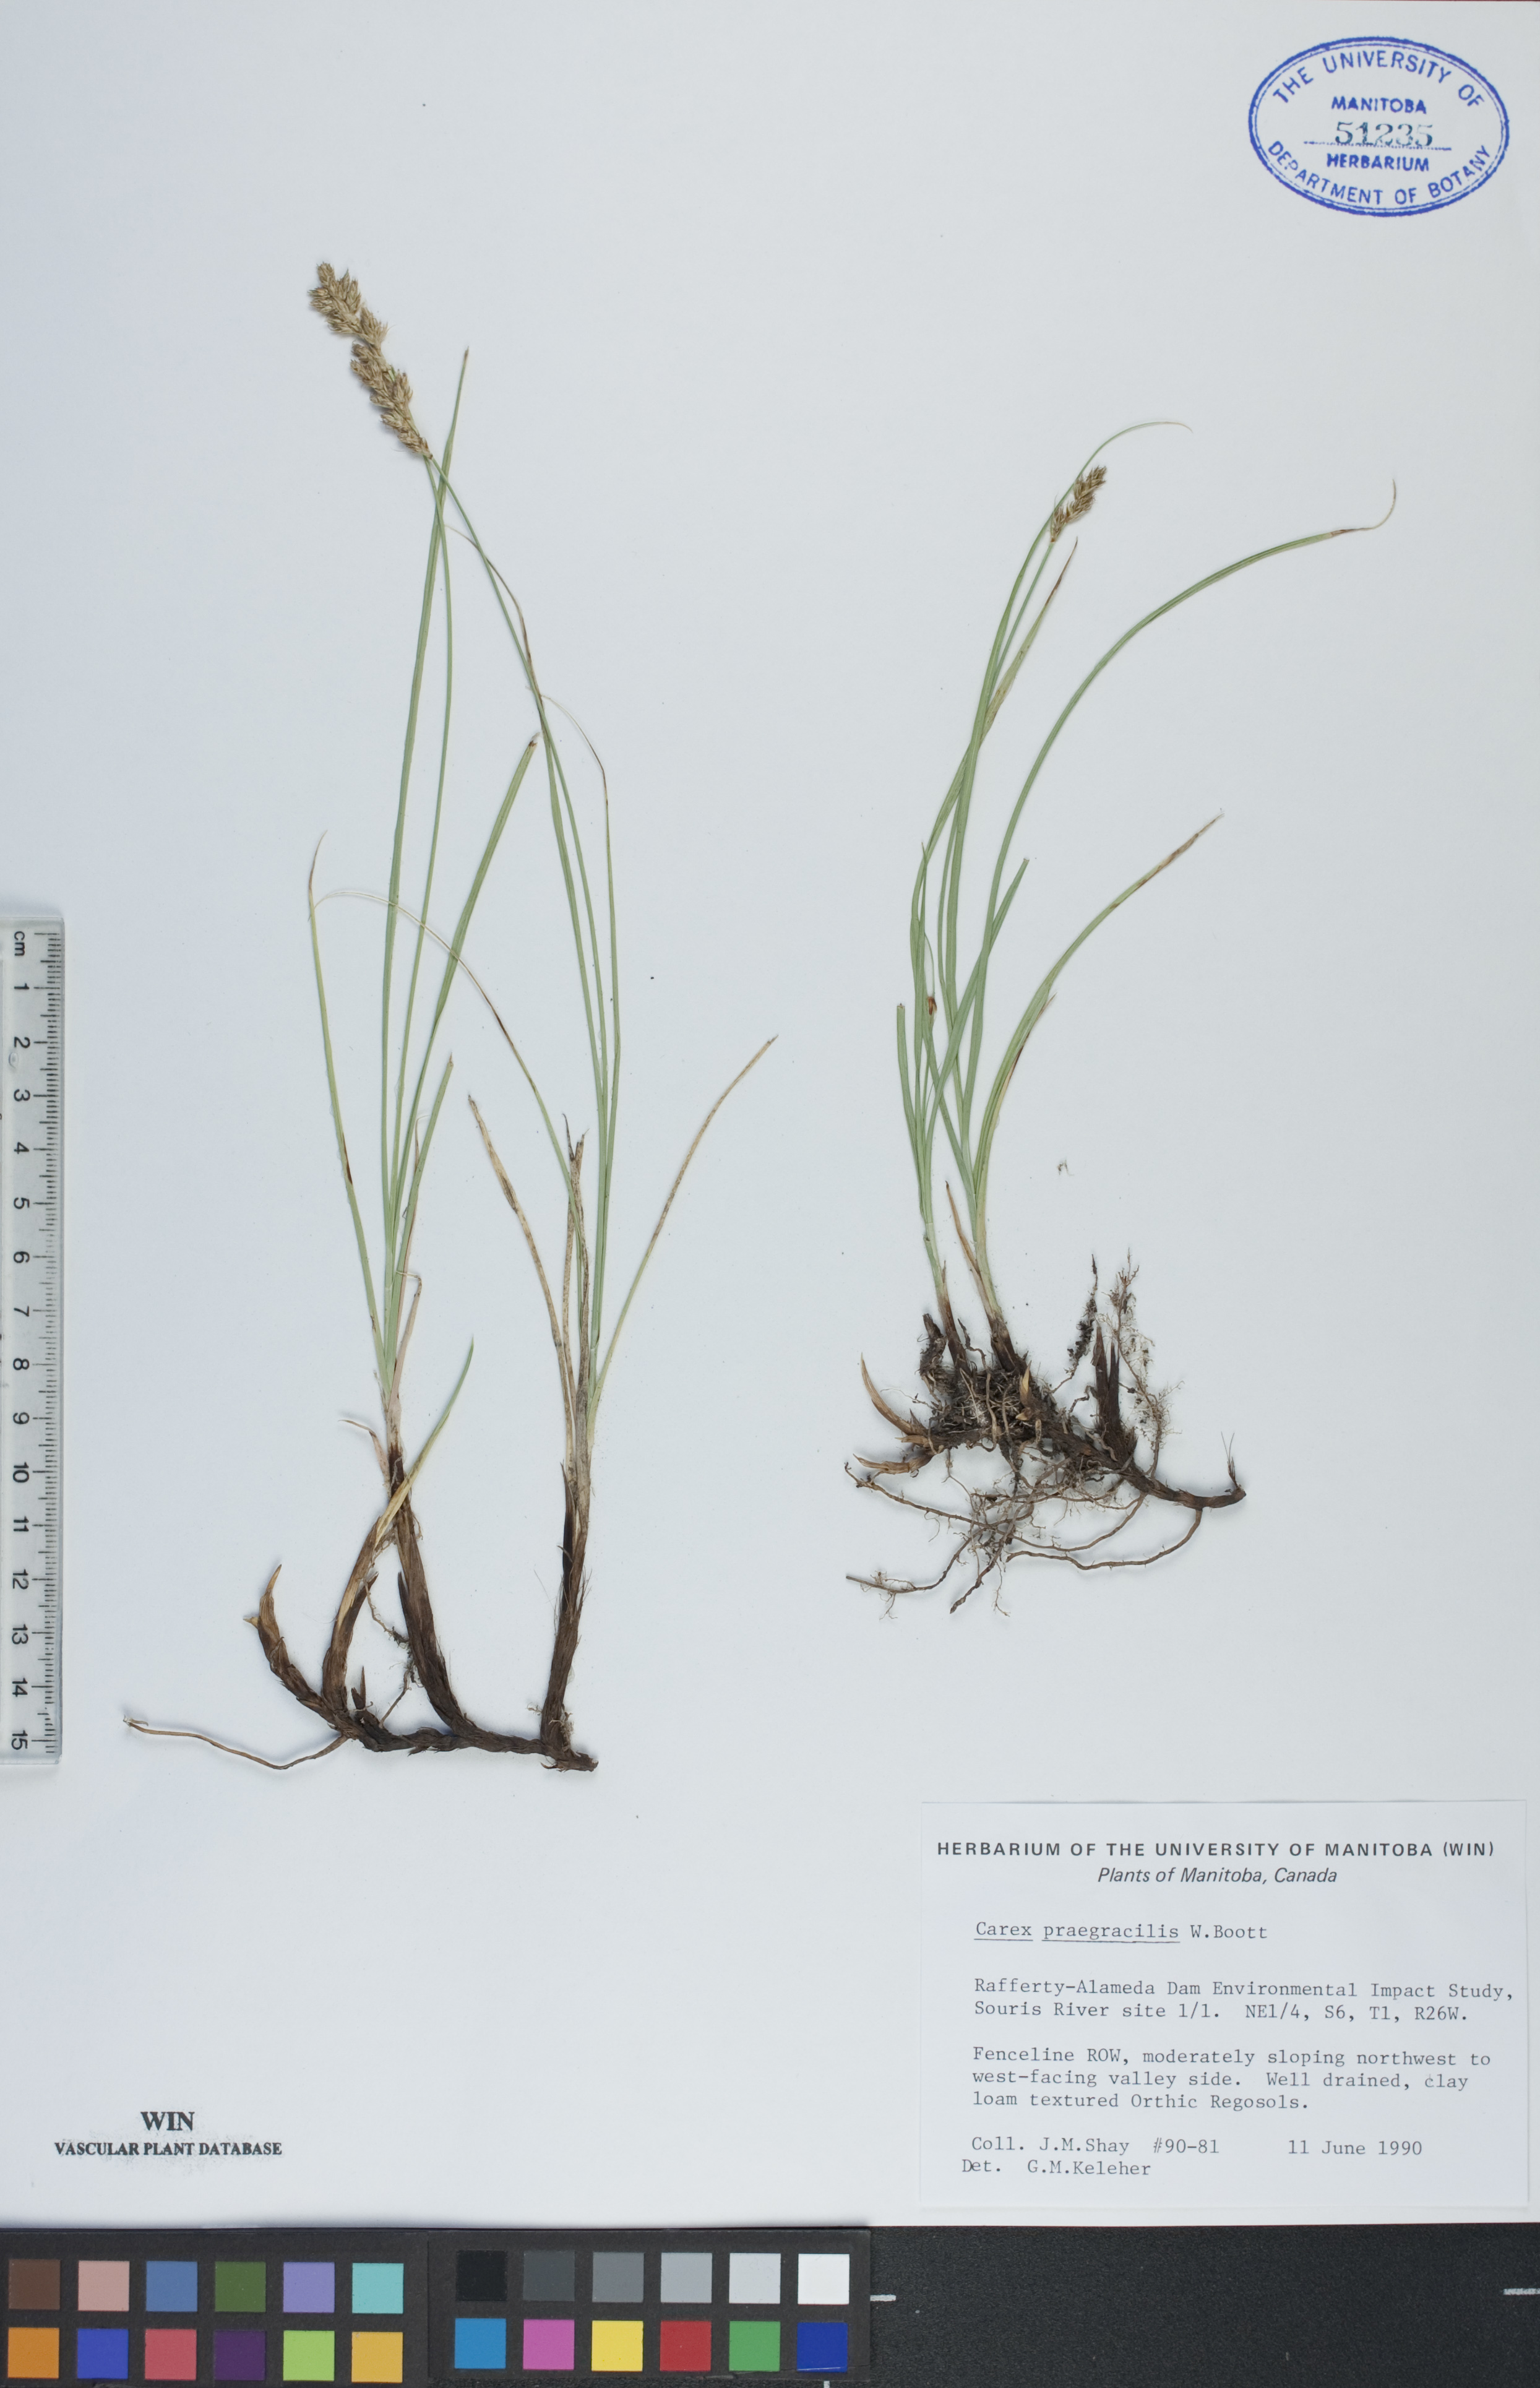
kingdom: Plantae
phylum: Tracheophyta
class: Liliopsida
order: Poales
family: Cyperaceae
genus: Carex
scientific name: Carex praegracilis
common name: Black creeper sedge
